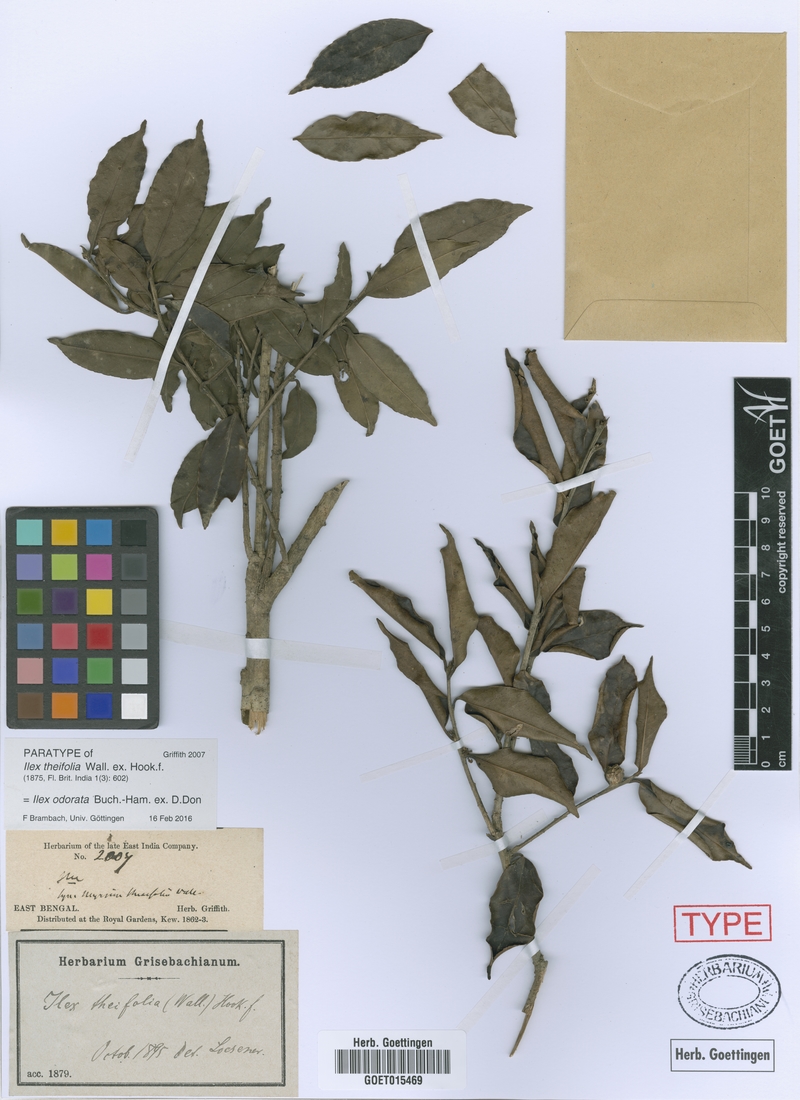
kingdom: Plantae
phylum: Tracheophyta
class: Magnoliopsida
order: Aquifoliales
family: Aquifoliaceae
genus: Ilex
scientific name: Ilex odorata
